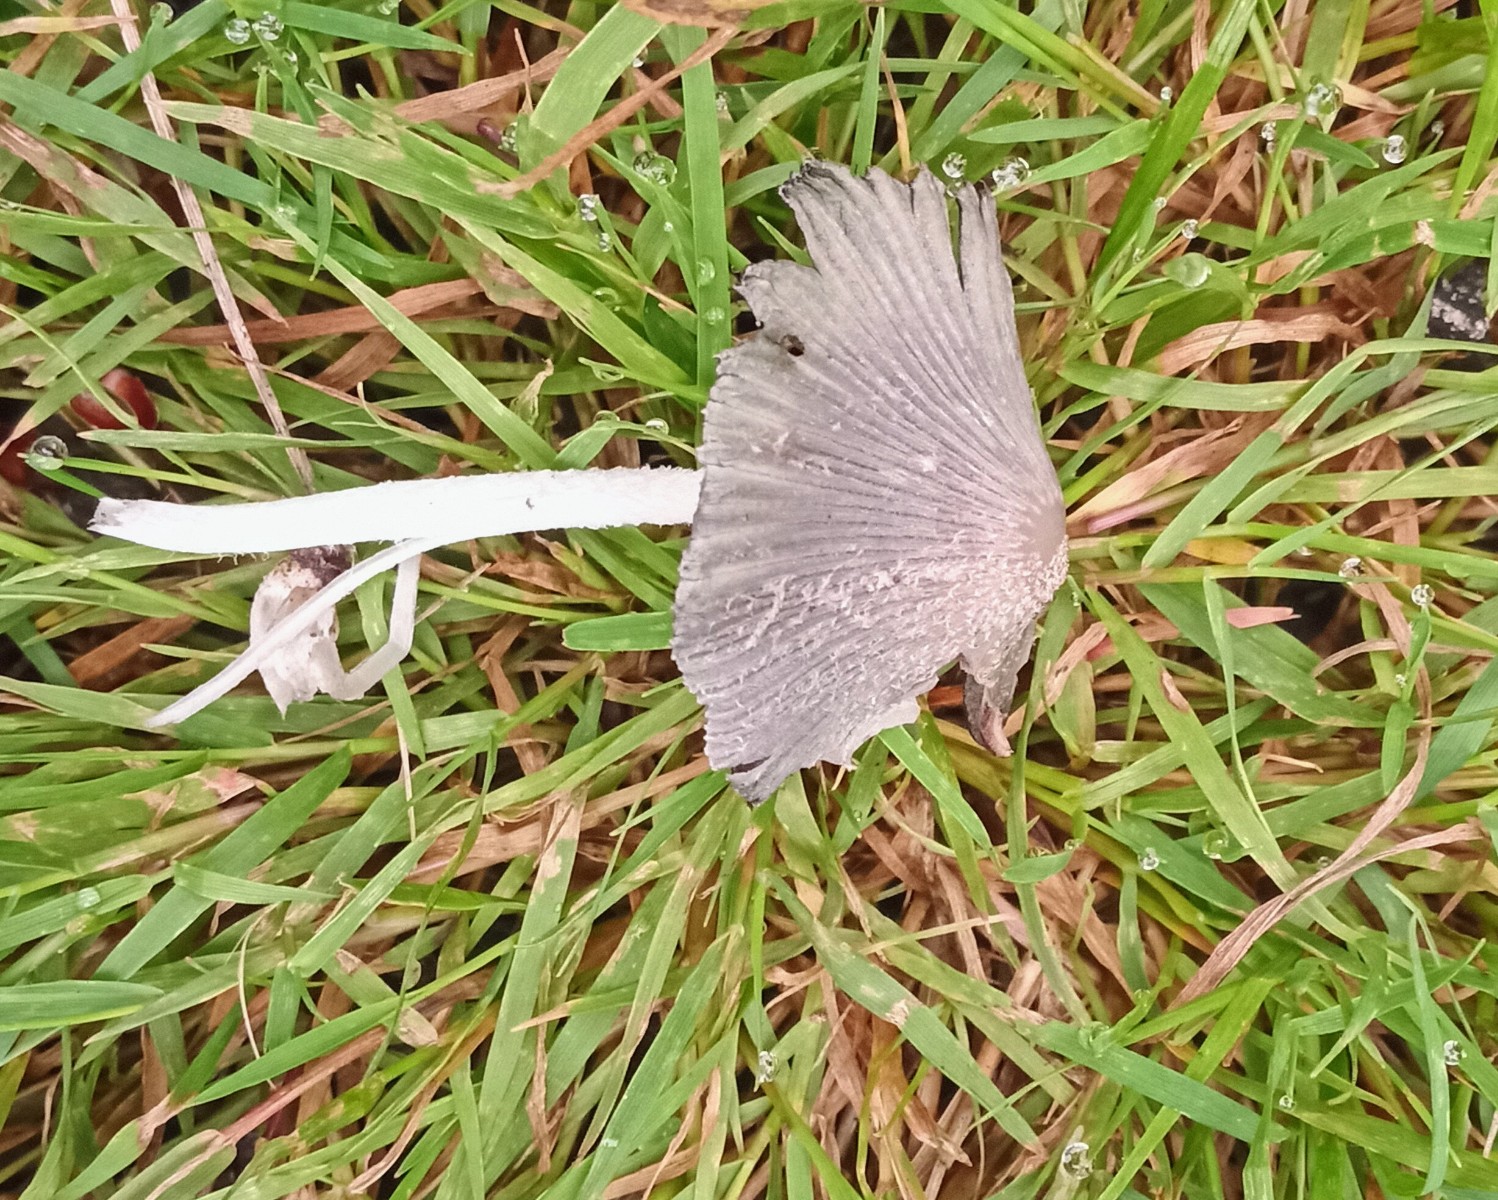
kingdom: Fungi
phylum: Basidiomycota
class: Agaricomycetes
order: Agaricales
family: Psathyrellaceae
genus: Coprinopsis
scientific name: Coprinopsis lagopus
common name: dunstokket blækhat
